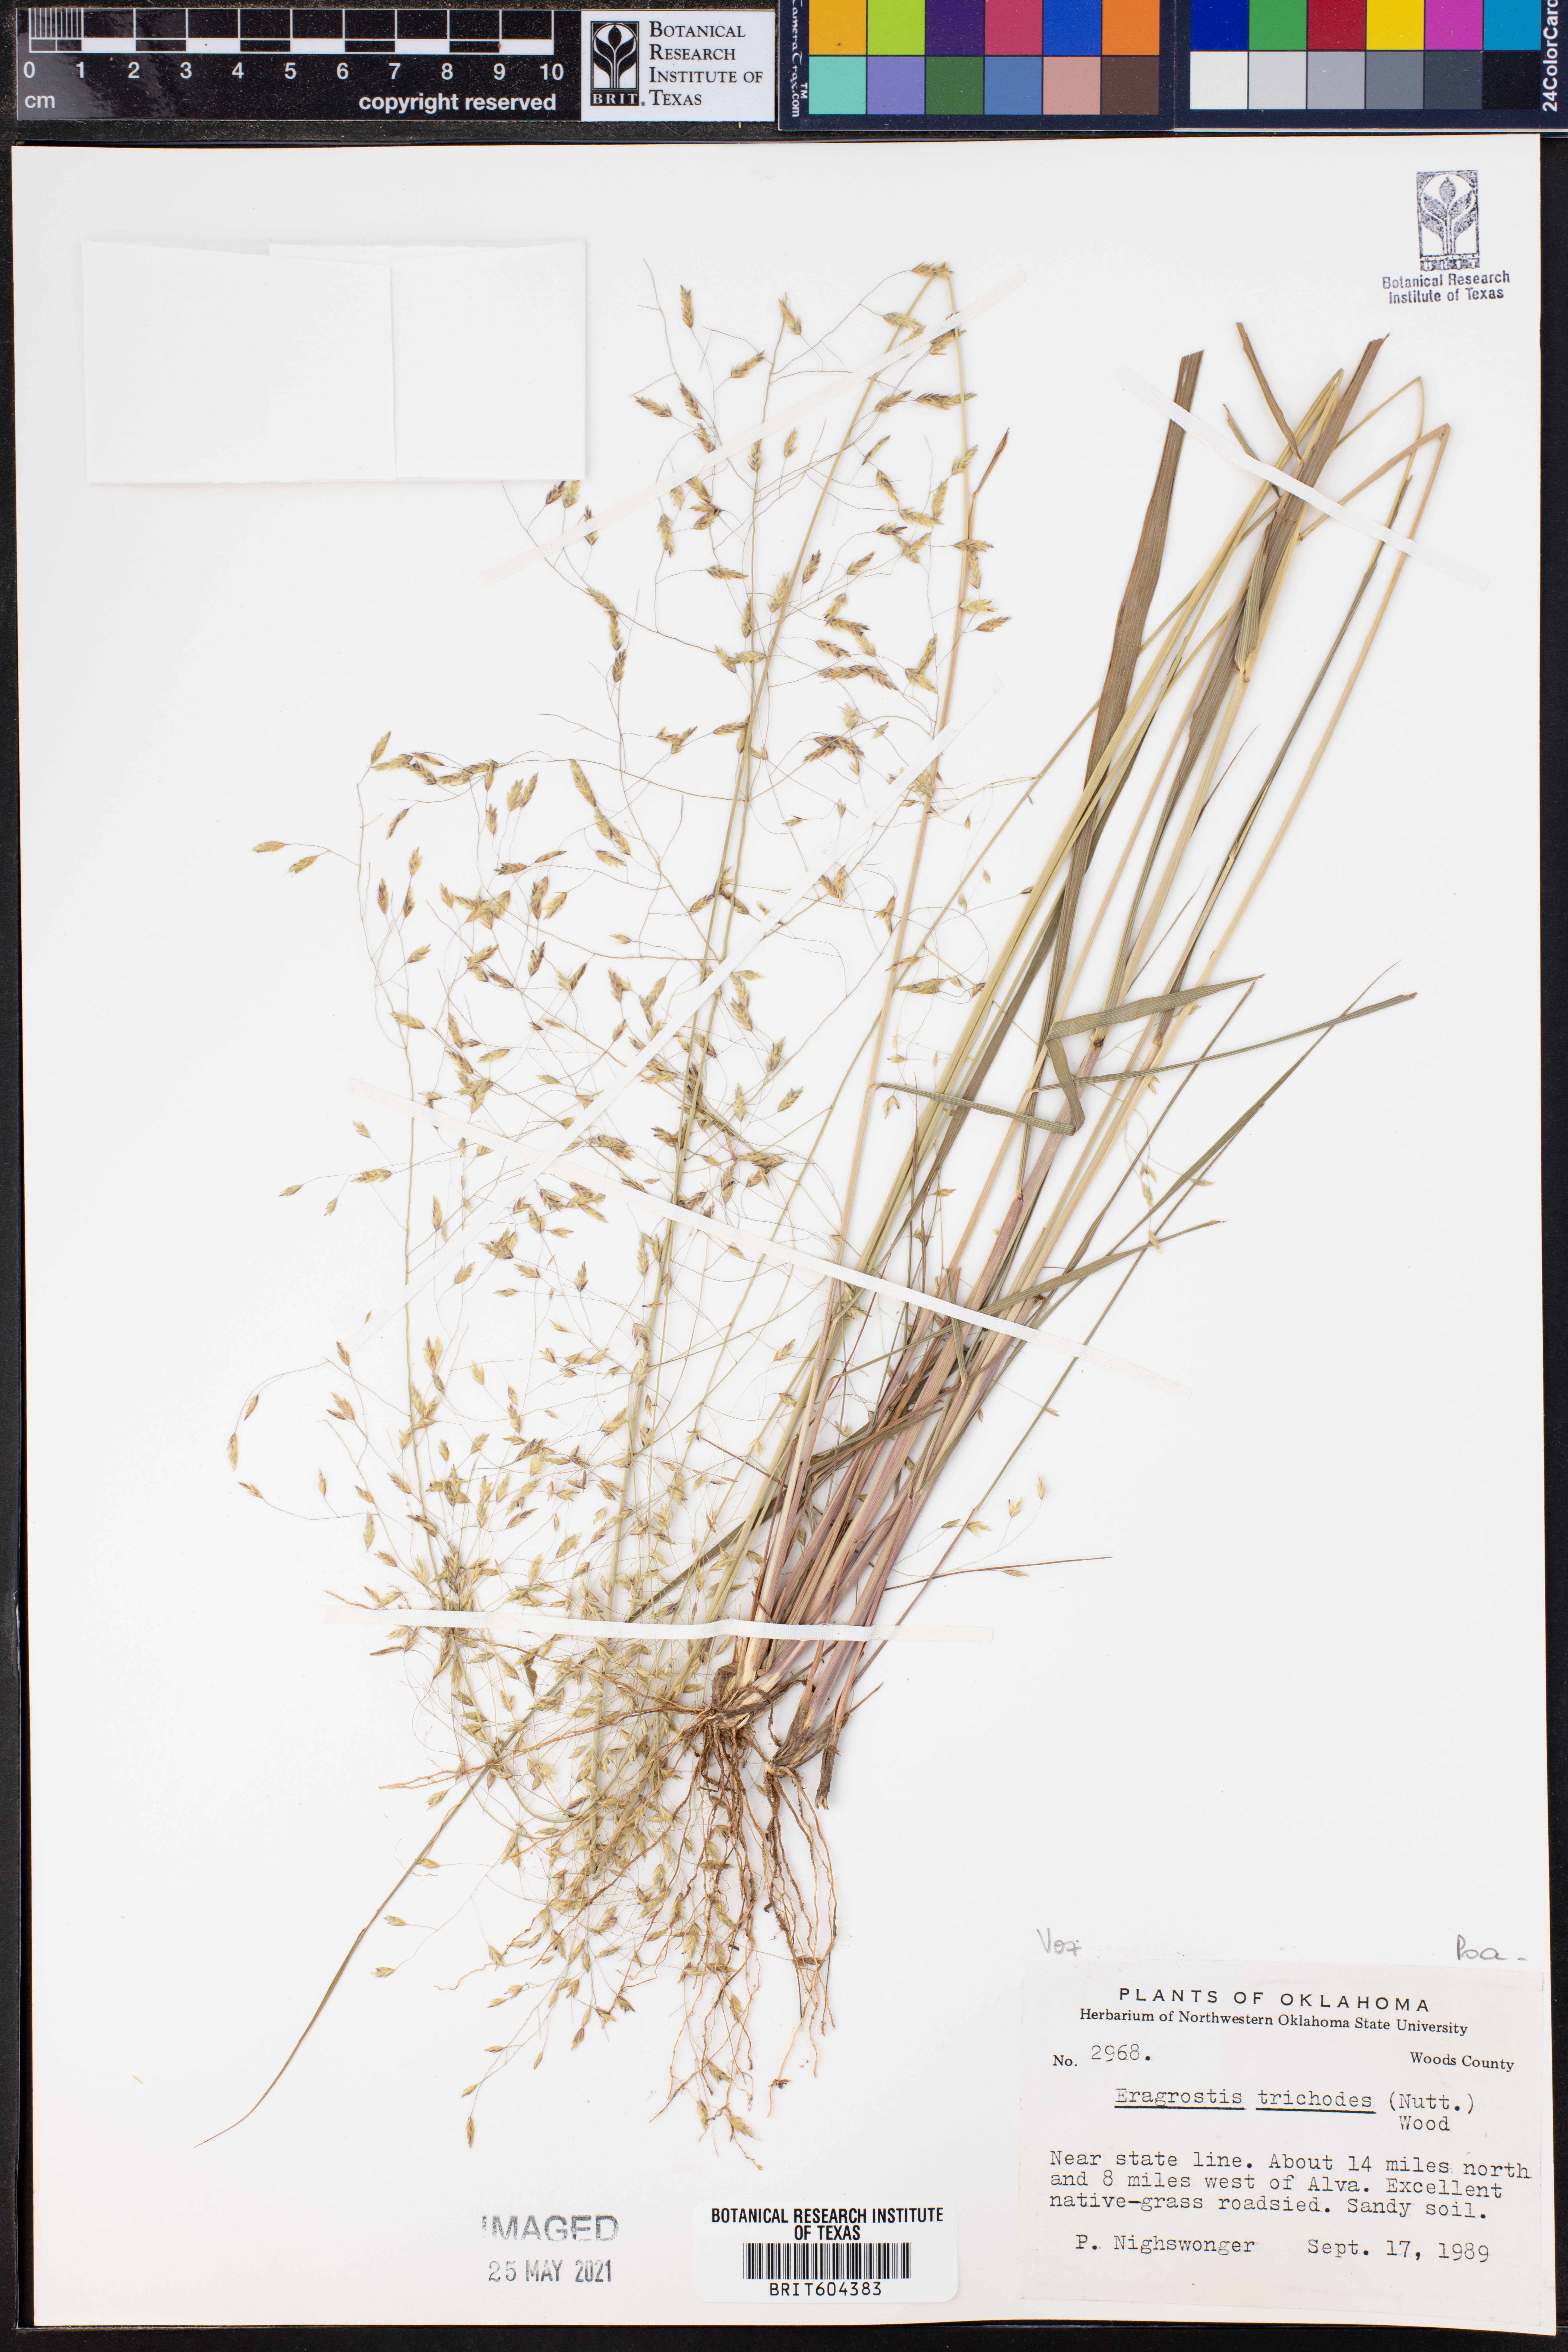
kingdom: Plantae
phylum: Tracheophyta
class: Liliopsida
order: Poales
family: Poaceae
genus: Eragrostis
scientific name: Eragrostis trichodes
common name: Sand love grass
